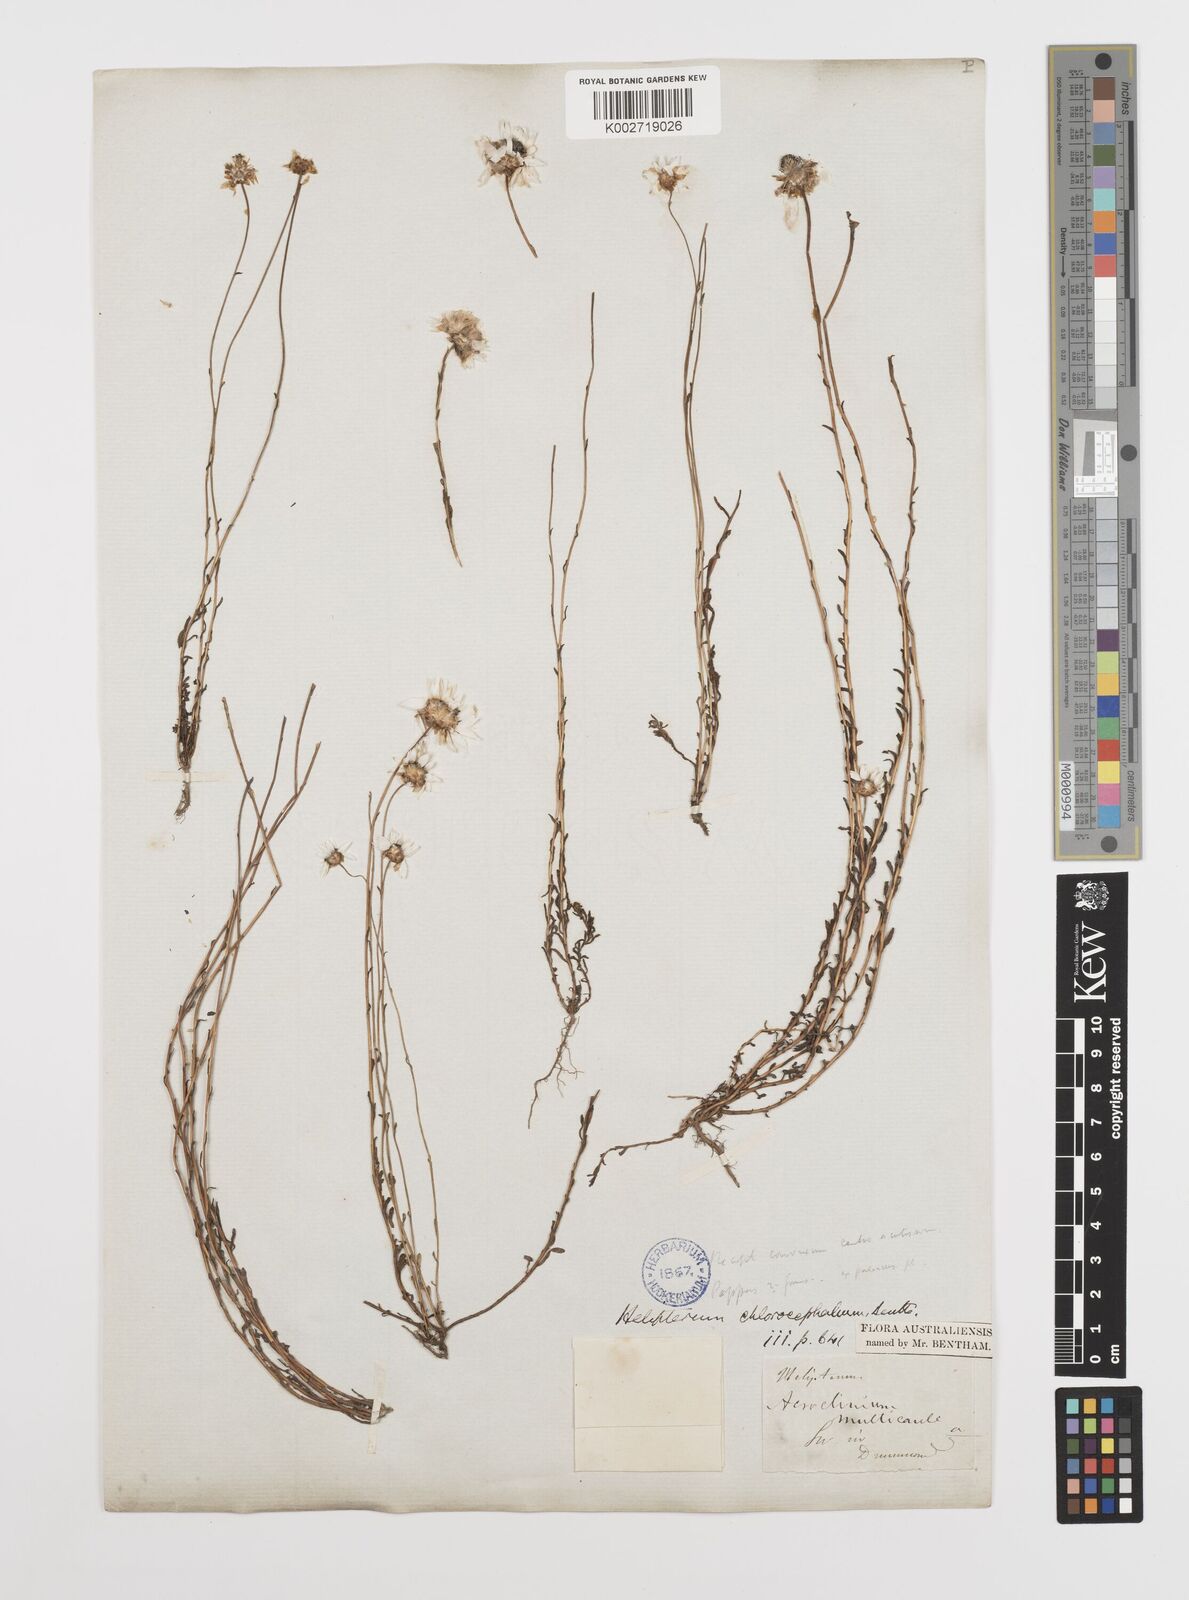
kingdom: Plantae
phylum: Tracheophyta
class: Magnoliopsida
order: Asterales
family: Asteraceae
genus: Rhodanthe
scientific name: Rhodanthe chlorocephala
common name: Rosy sunray
